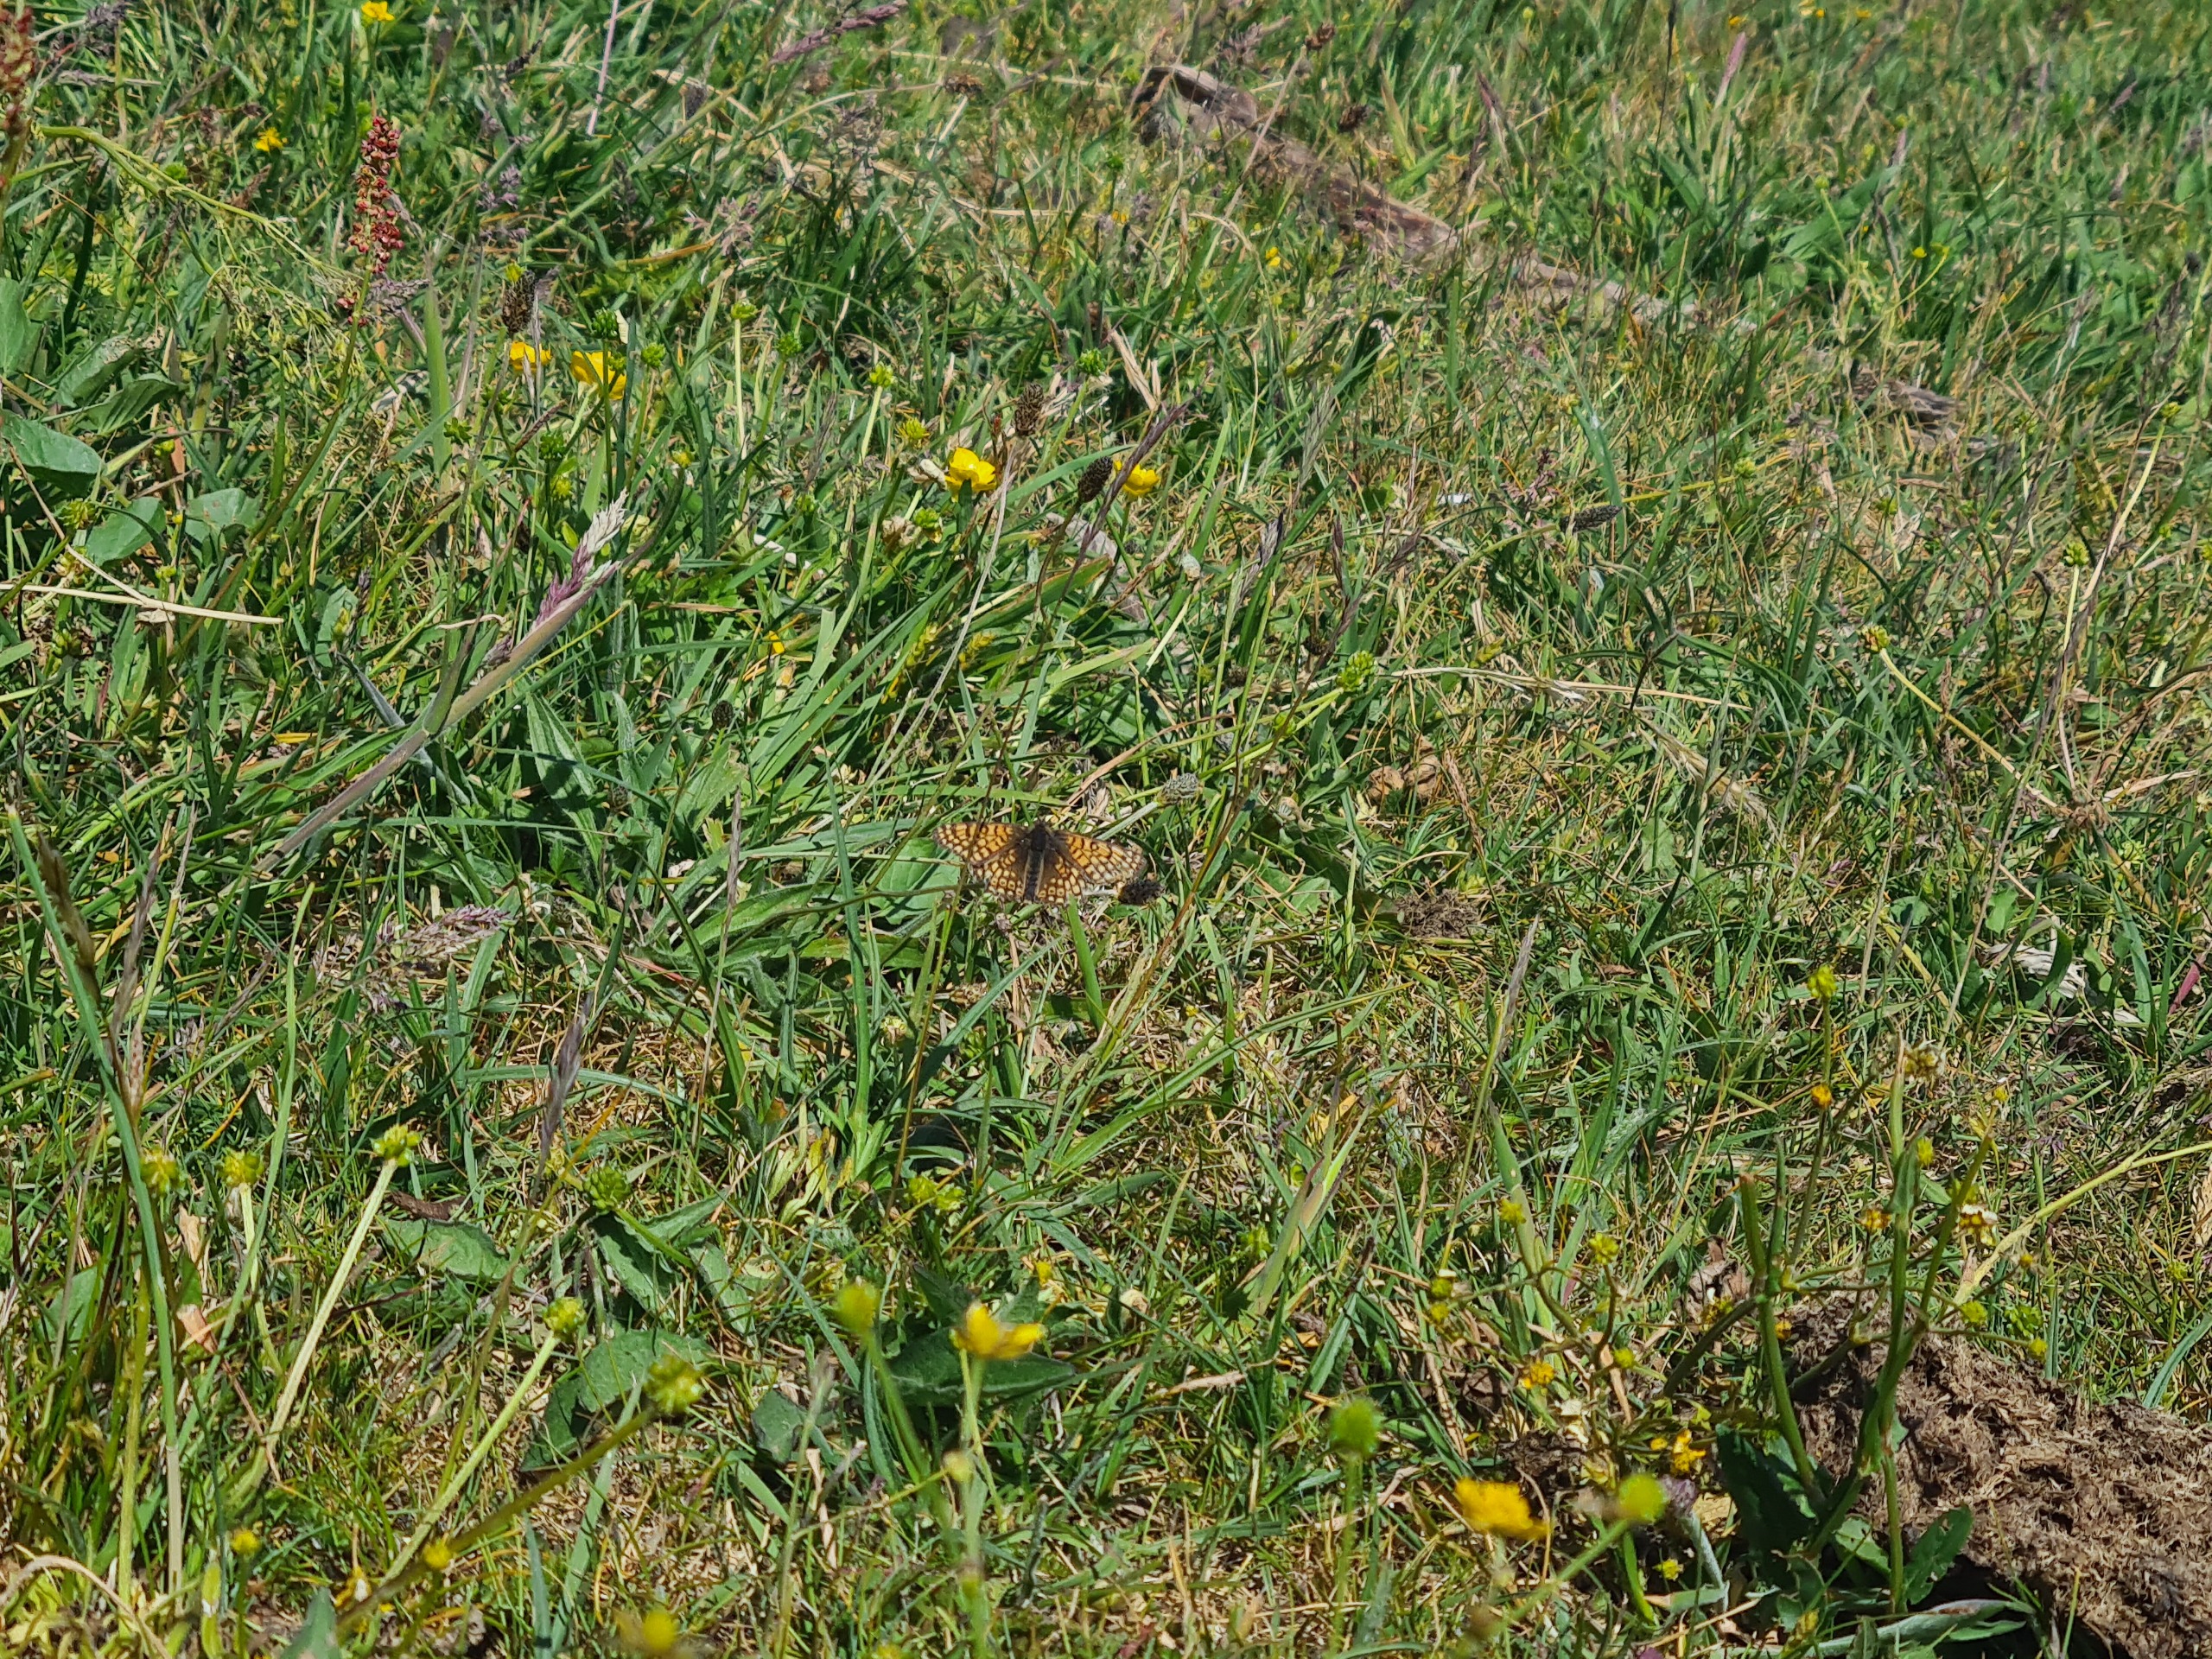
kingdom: Animalia
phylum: Arthropoda
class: Insecta
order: Lepidoptera
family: Nymphalidae
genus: Melitaea
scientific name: Melitaea cinxia
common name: Okkergul pletvinge
